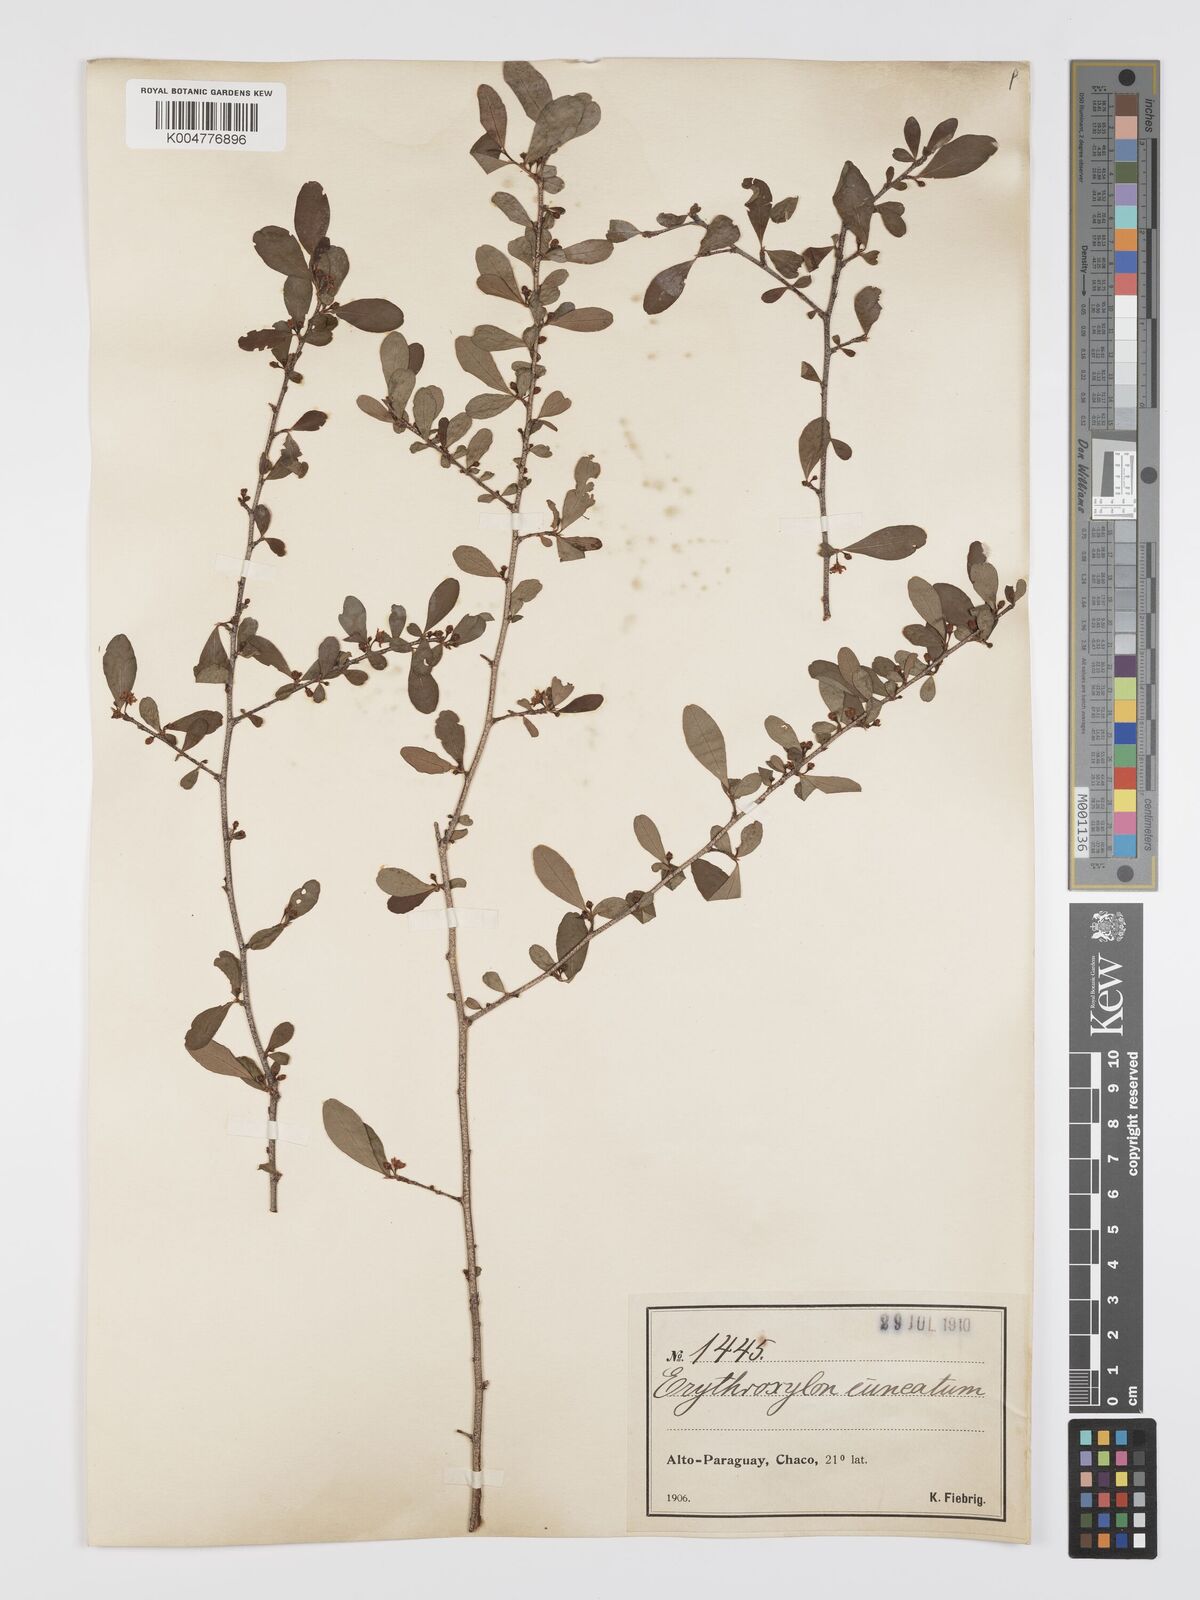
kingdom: Plantae
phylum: Tracheophyta
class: Magnoliopsida
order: Malpighiales
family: Erythroxylaceae
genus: Erythroxylum
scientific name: Erythroxylum cuneifolium
